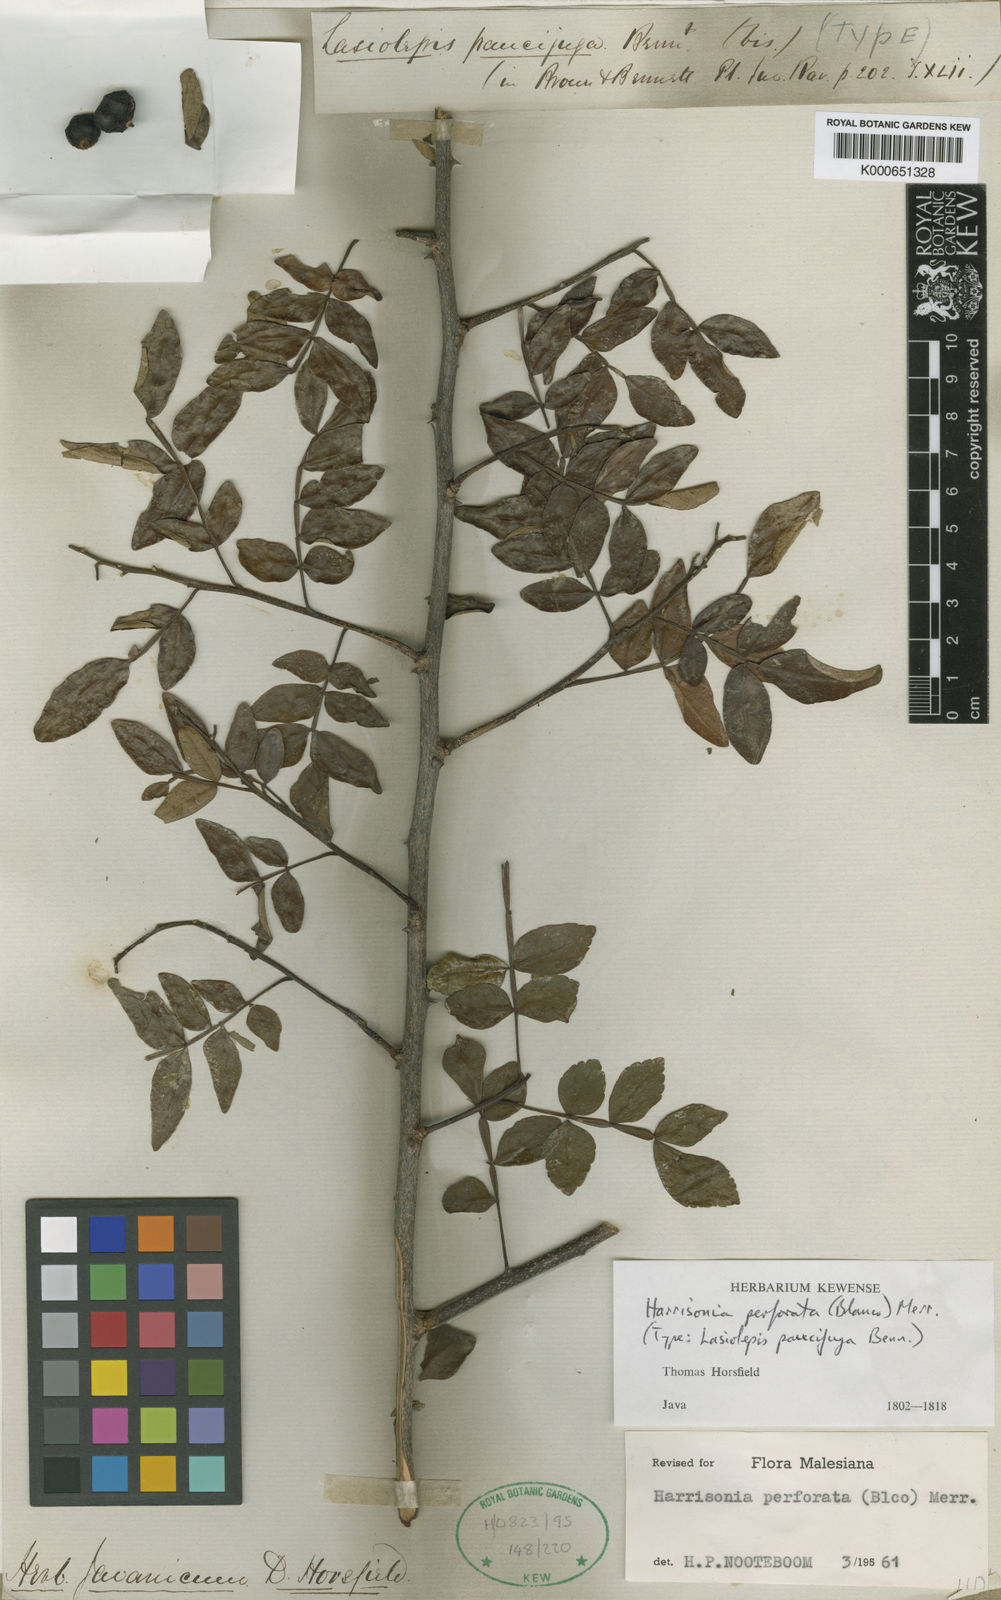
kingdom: Plantae
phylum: Tracheophyta
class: Magnoliopsida
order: Sapindales
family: Rutaceae
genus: Harrisonia
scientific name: Harrisonia perforata
